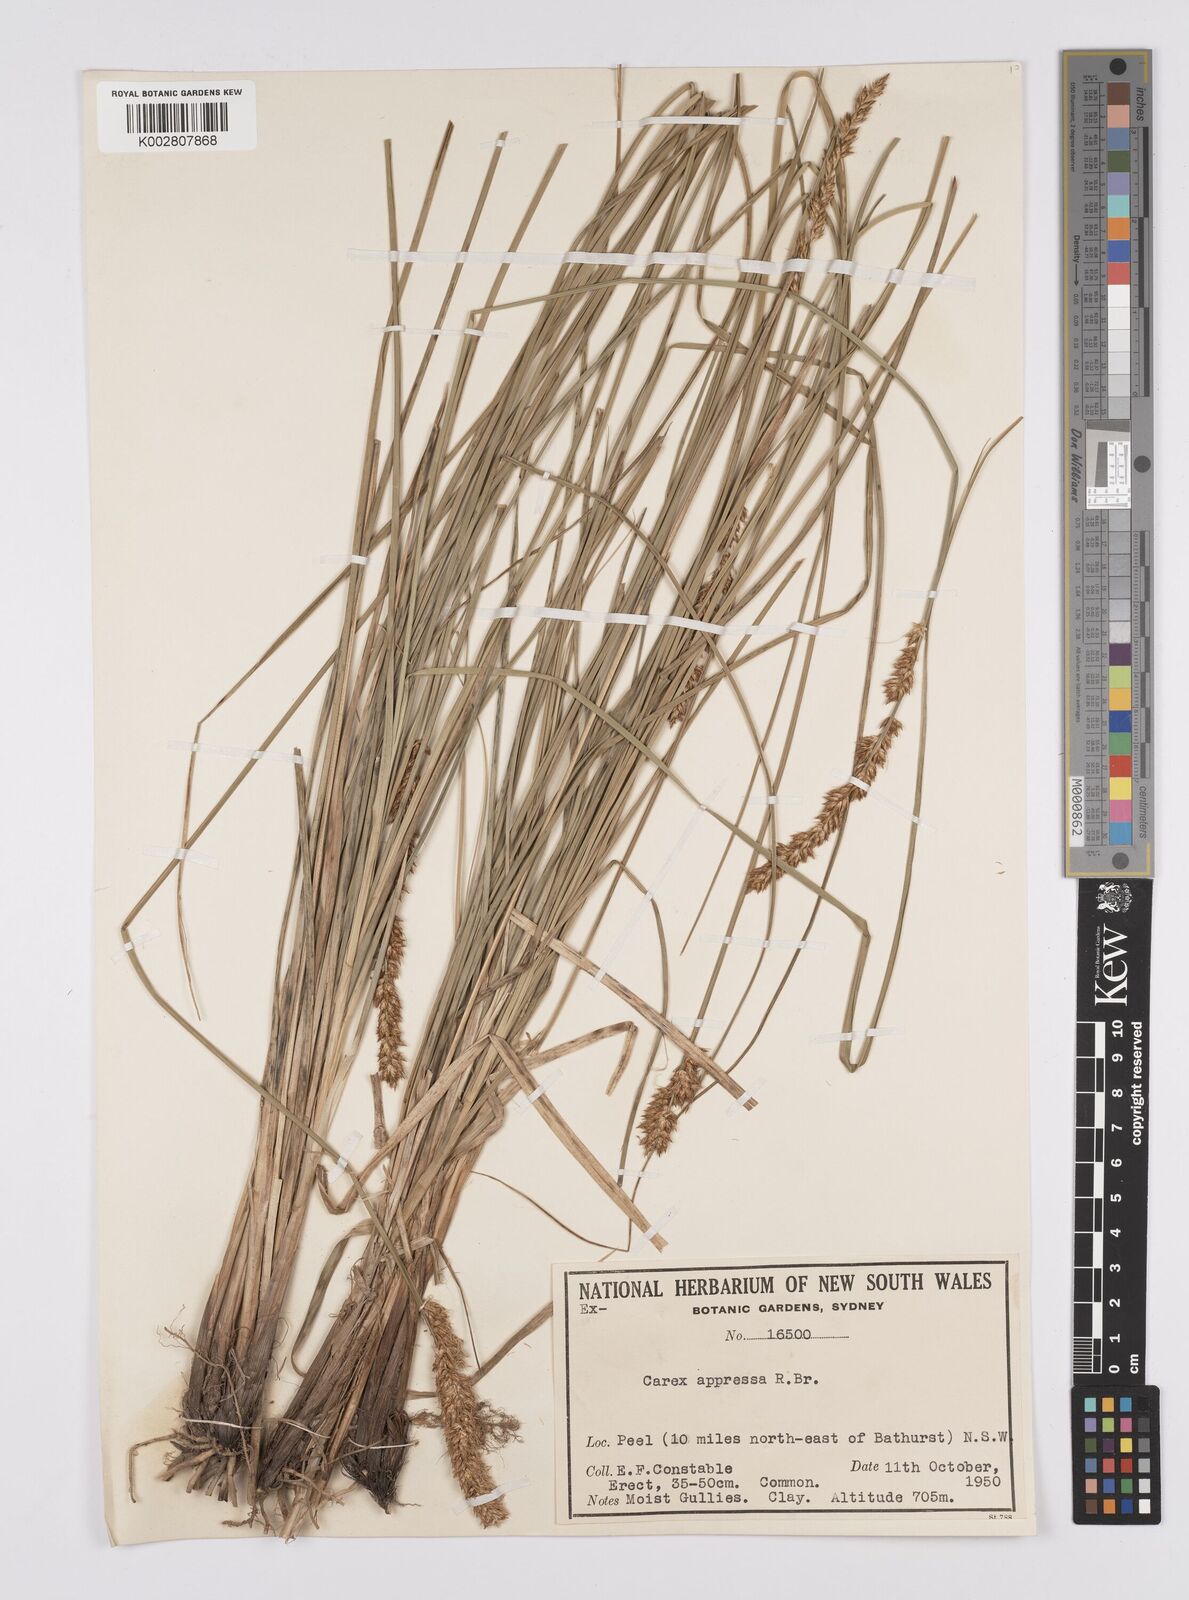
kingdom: Plantae
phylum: Tracheophyta
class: Liliopsida
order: Poales
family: Cyperaceae
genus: Carex
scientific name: Carex appressa
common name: Tussock sedge
